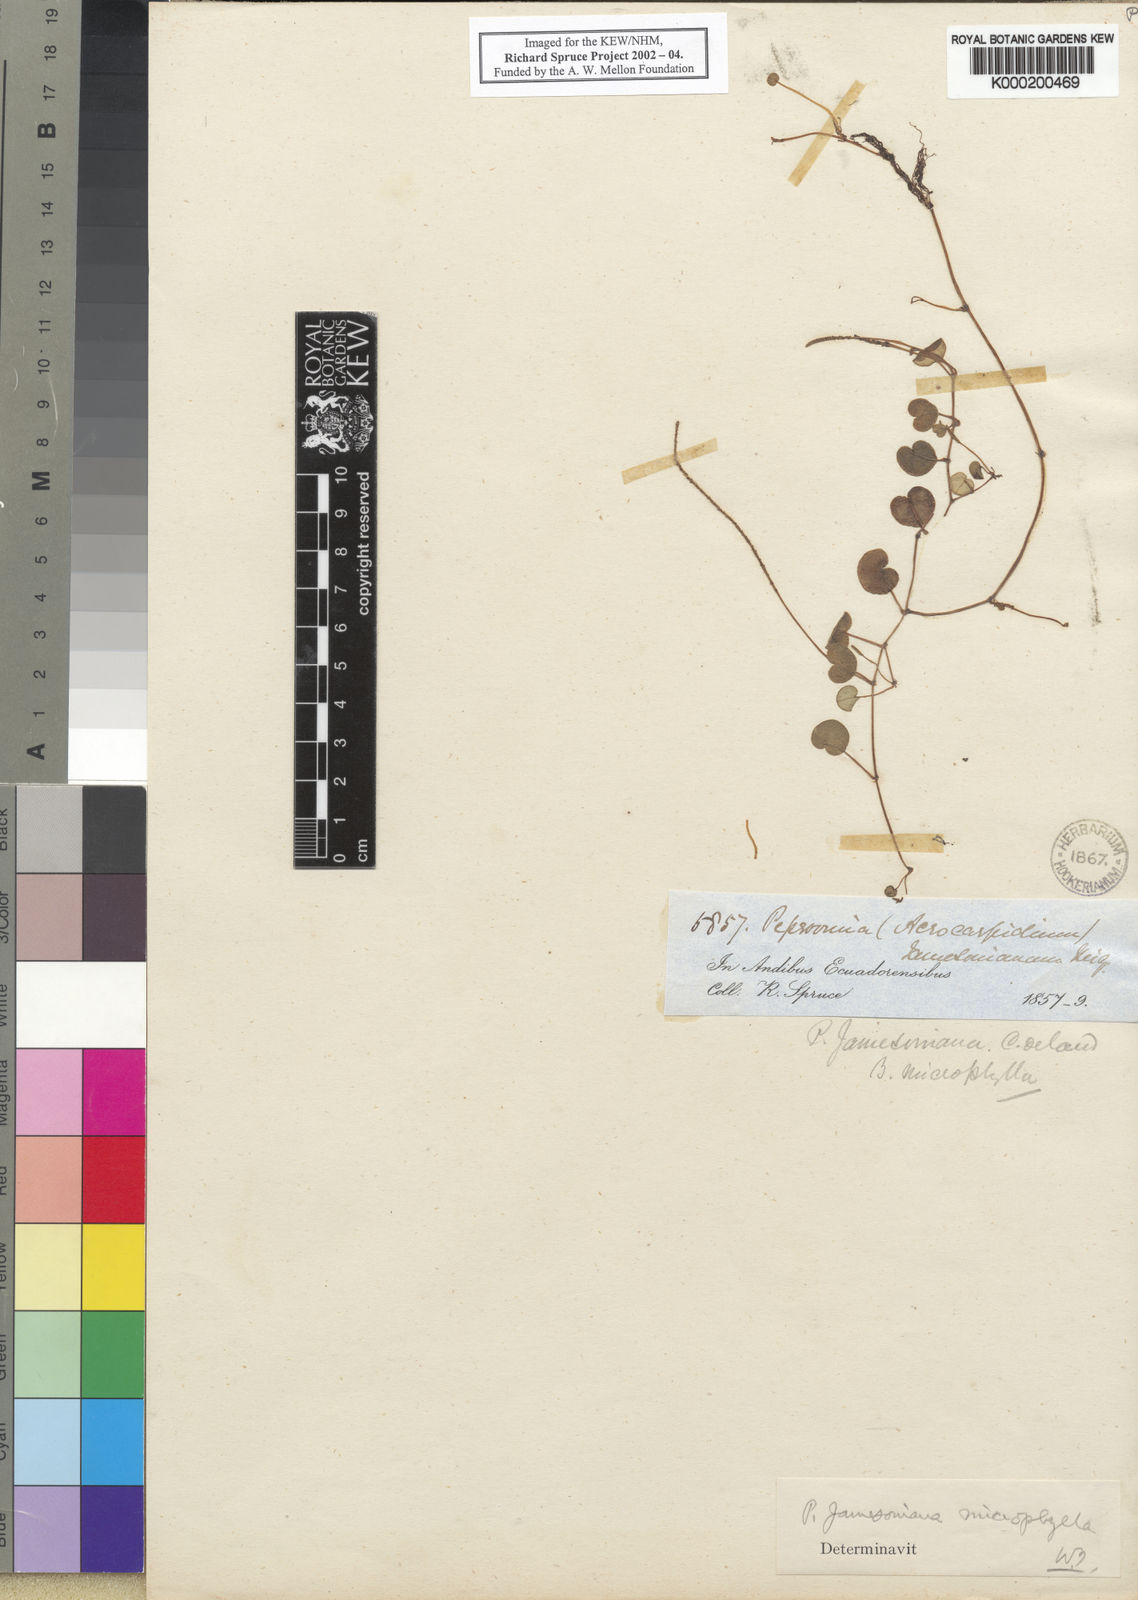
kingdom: Plantae
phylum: Tracheophyta
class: Magnoliopsida
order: Piperales
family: Piperaceae
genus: Peperomia
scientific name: Peperomia jamesoniana
